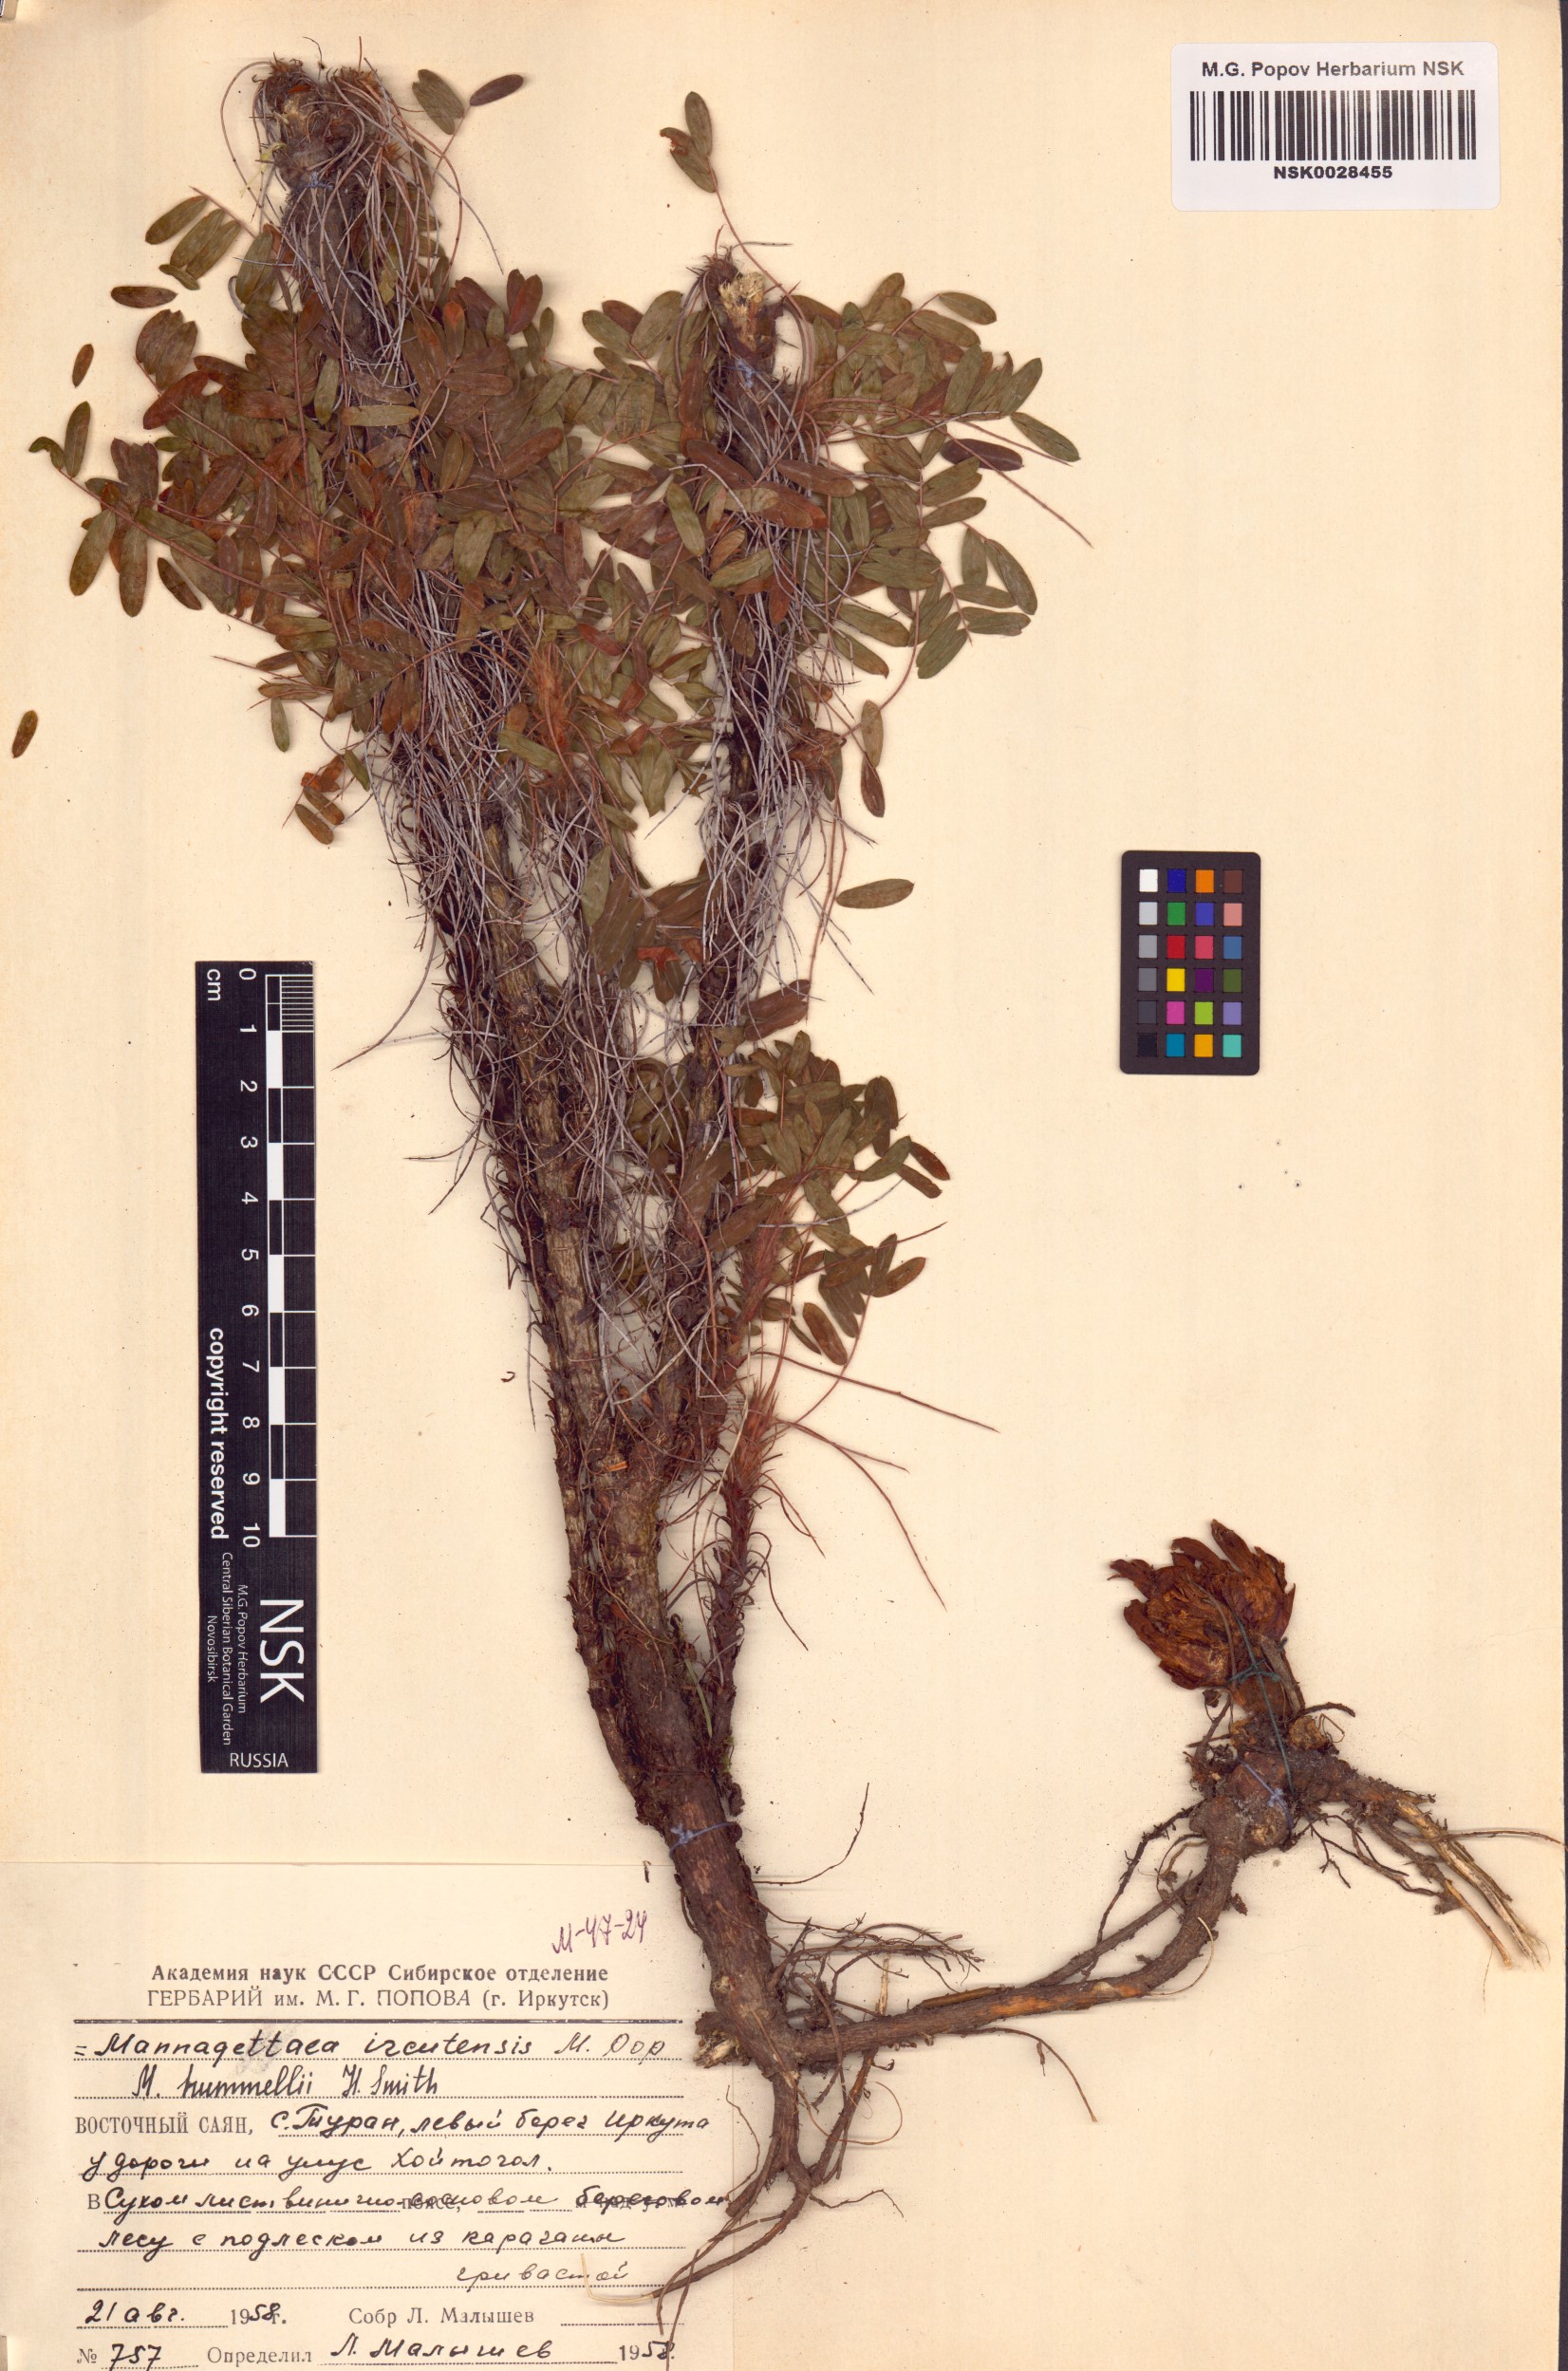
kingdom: Plantae
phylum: Tracheophyta
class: Magnoliopsida
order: Lamiales
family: Orobanchaceae
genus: Mannagettaea
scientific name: Mannagettaea hummelii
